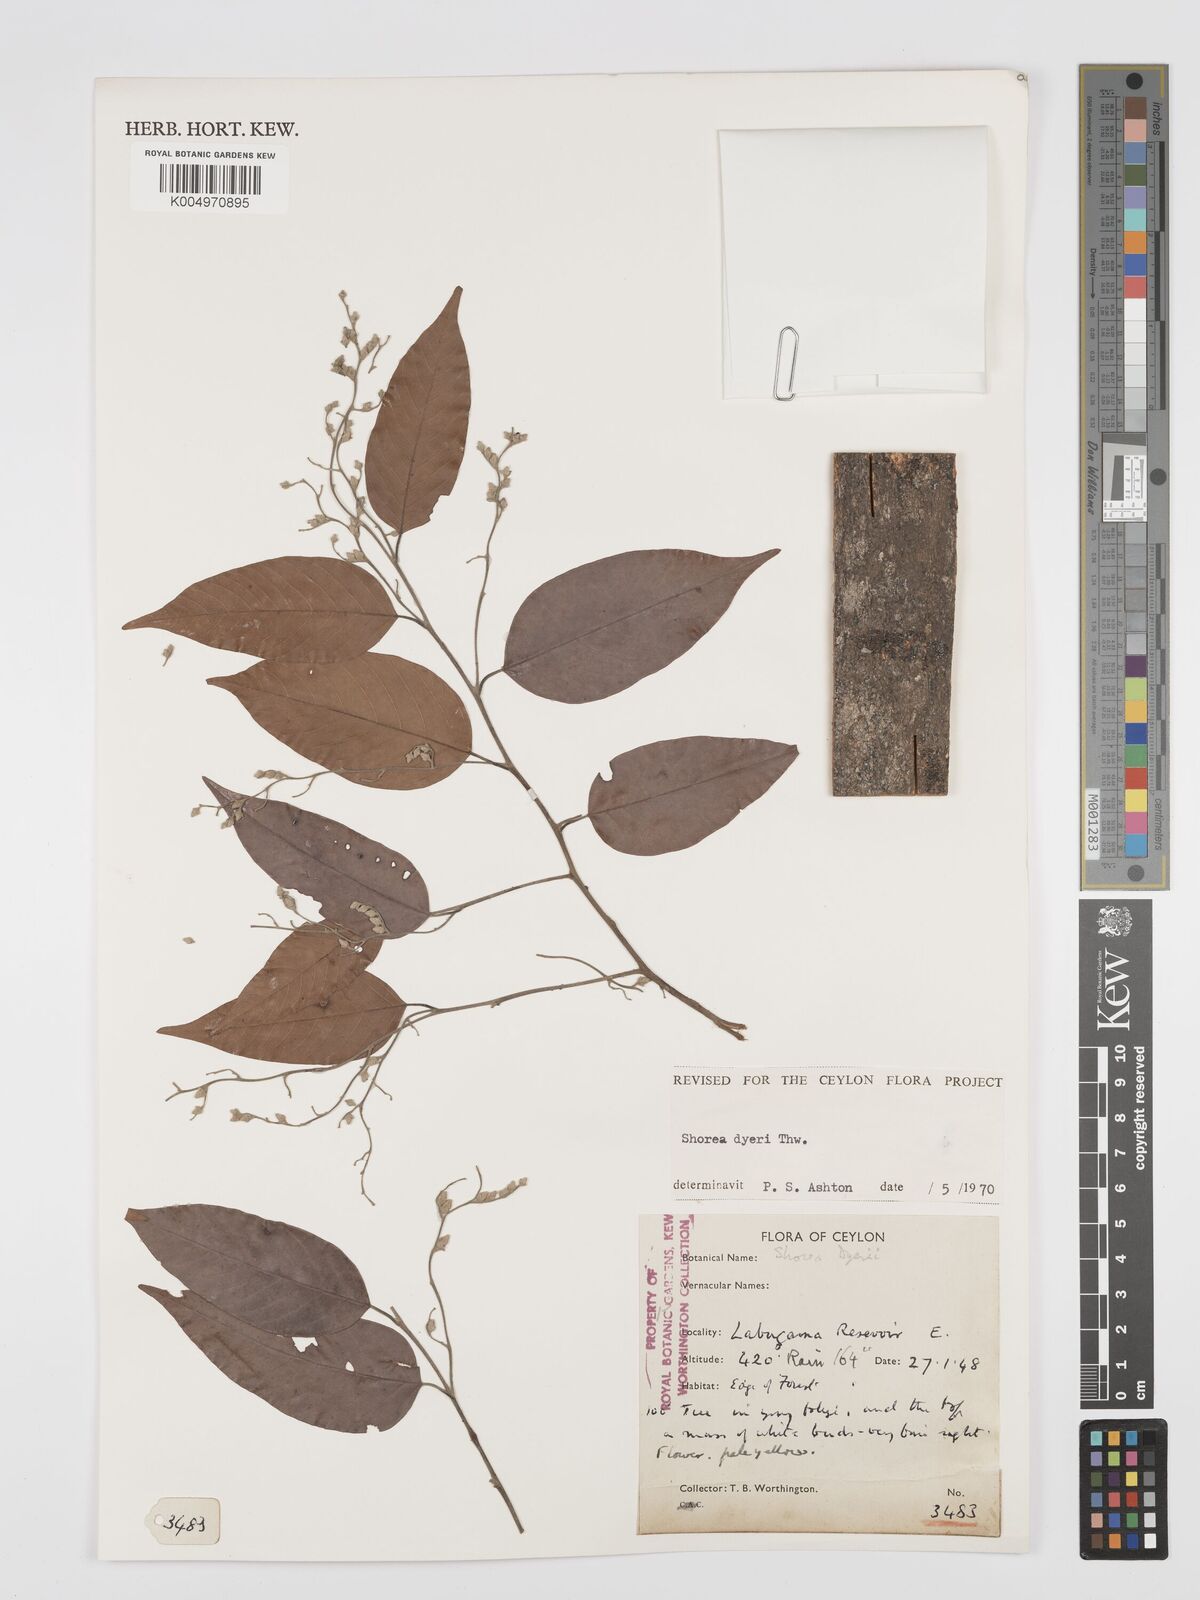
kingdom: Plantae
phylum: Tracheophyta
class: Magnoliopsida
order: Malvales
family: Dipterocarpaceae
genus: Shorea
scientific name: Shorea dyeri
